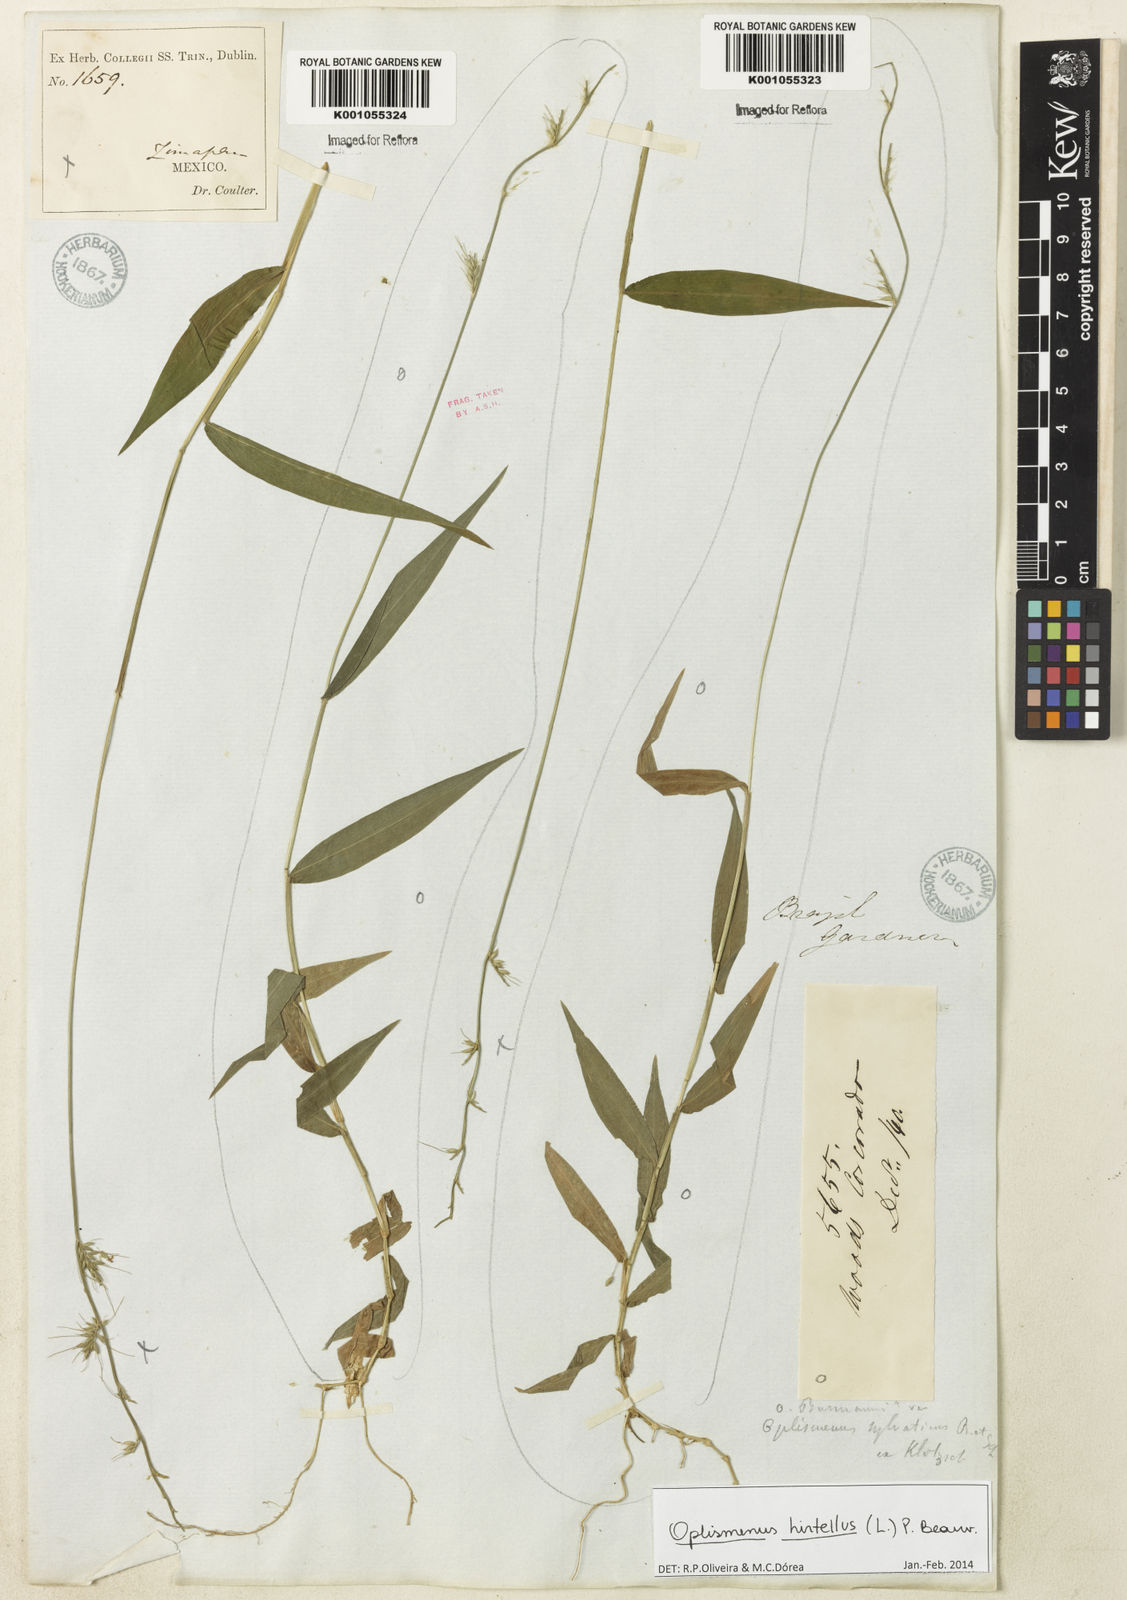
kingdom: Plantae
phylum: Tracheophyta
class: Liliopsida
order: Poales
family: Poaceae
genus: Oplismenus
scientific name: Oplismenus hirtellus
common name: Basketgrass
